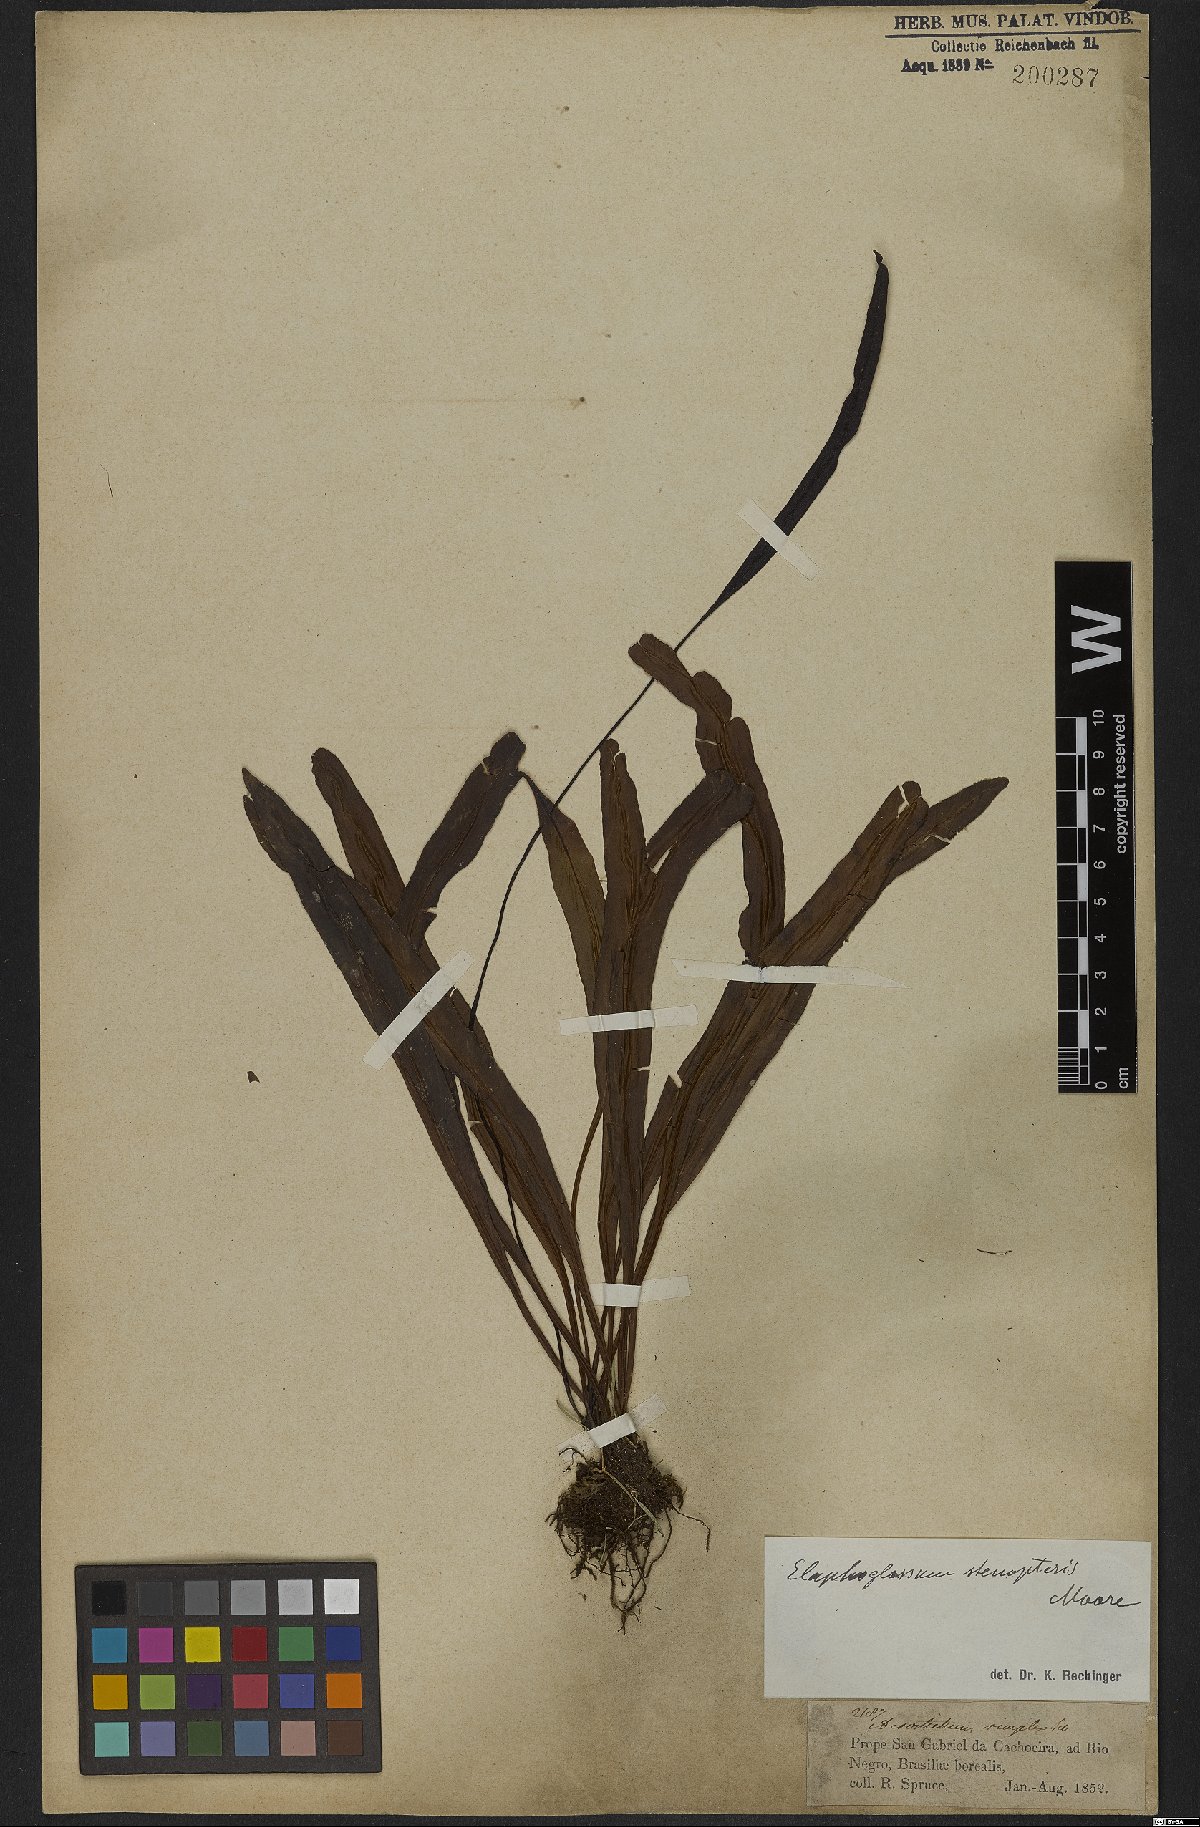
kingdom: Plantae
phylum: Tracheophyta
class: Polypodiopsida
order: Polypodiales
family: Dryopteridaceae
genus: Elaphoglossum
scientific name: Elaphoglossum brachyneuron
